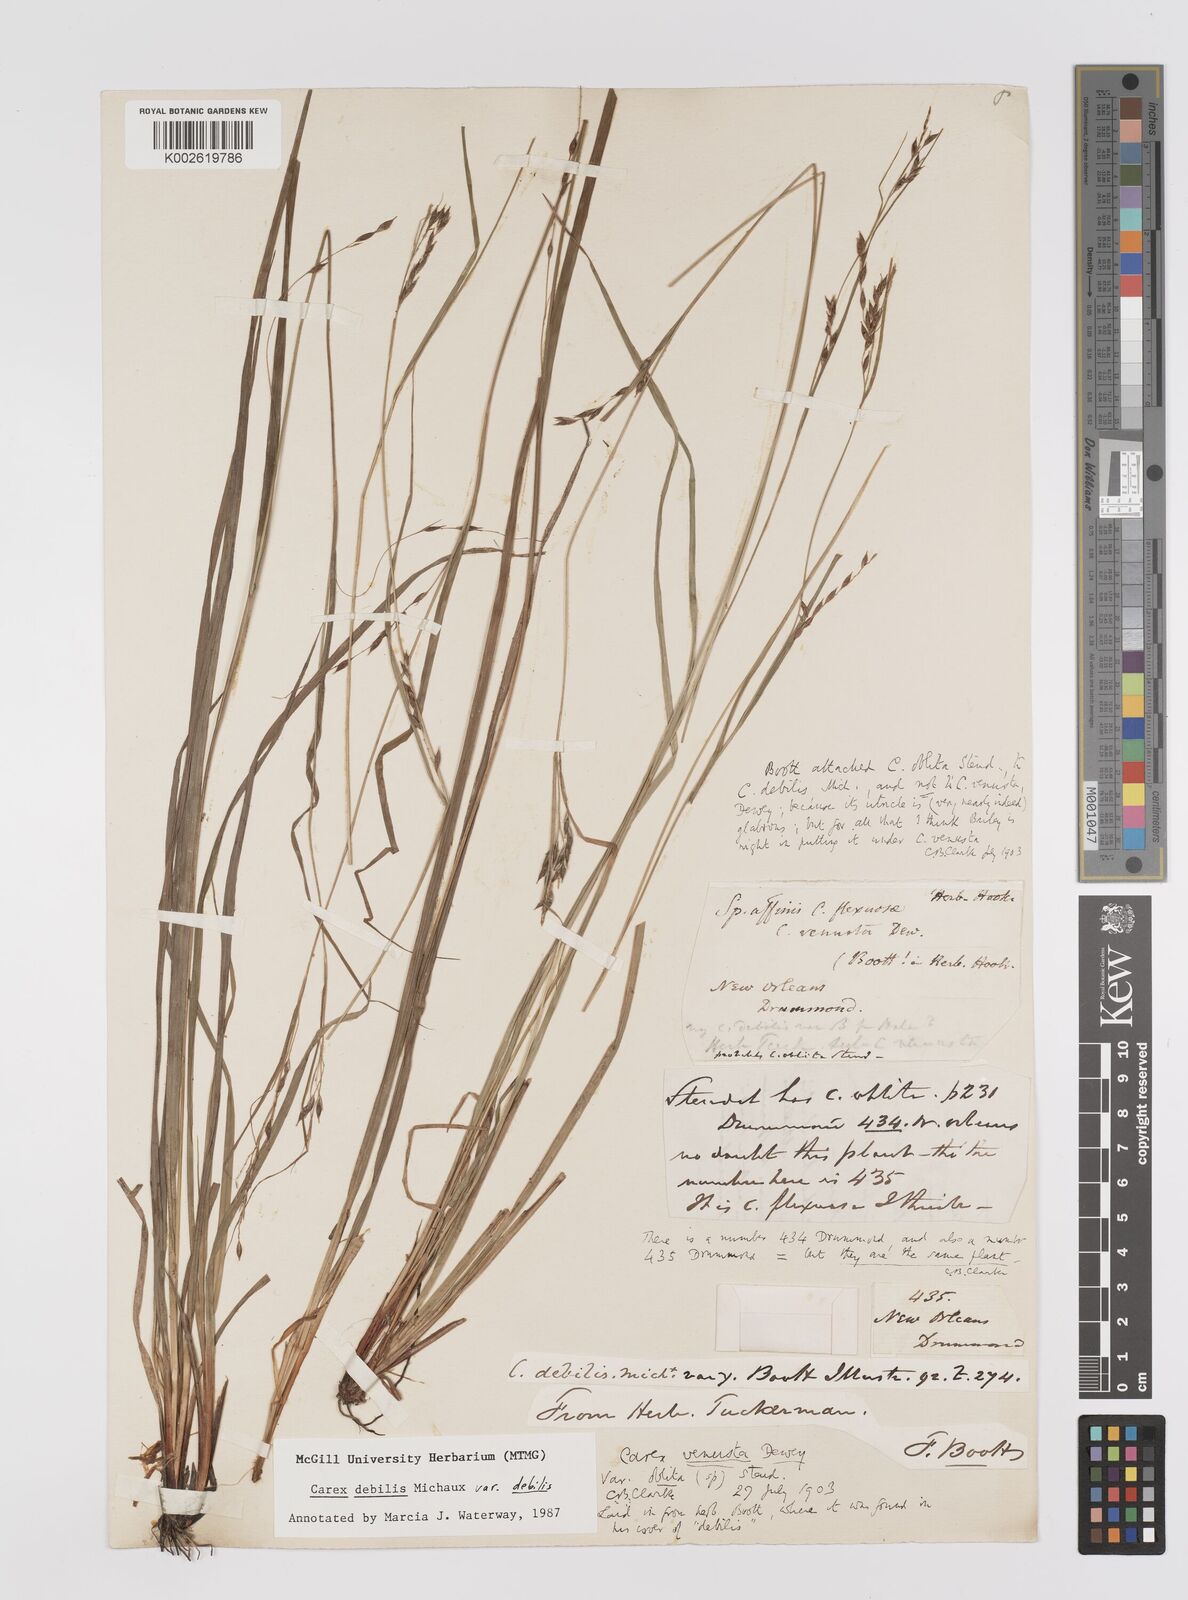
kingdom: Plantae
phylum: Tracheophyta
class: Liliopsida
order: Poales
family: Cyperaceae
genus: Carex
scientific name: Carex debilis
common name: White-edge sedge
